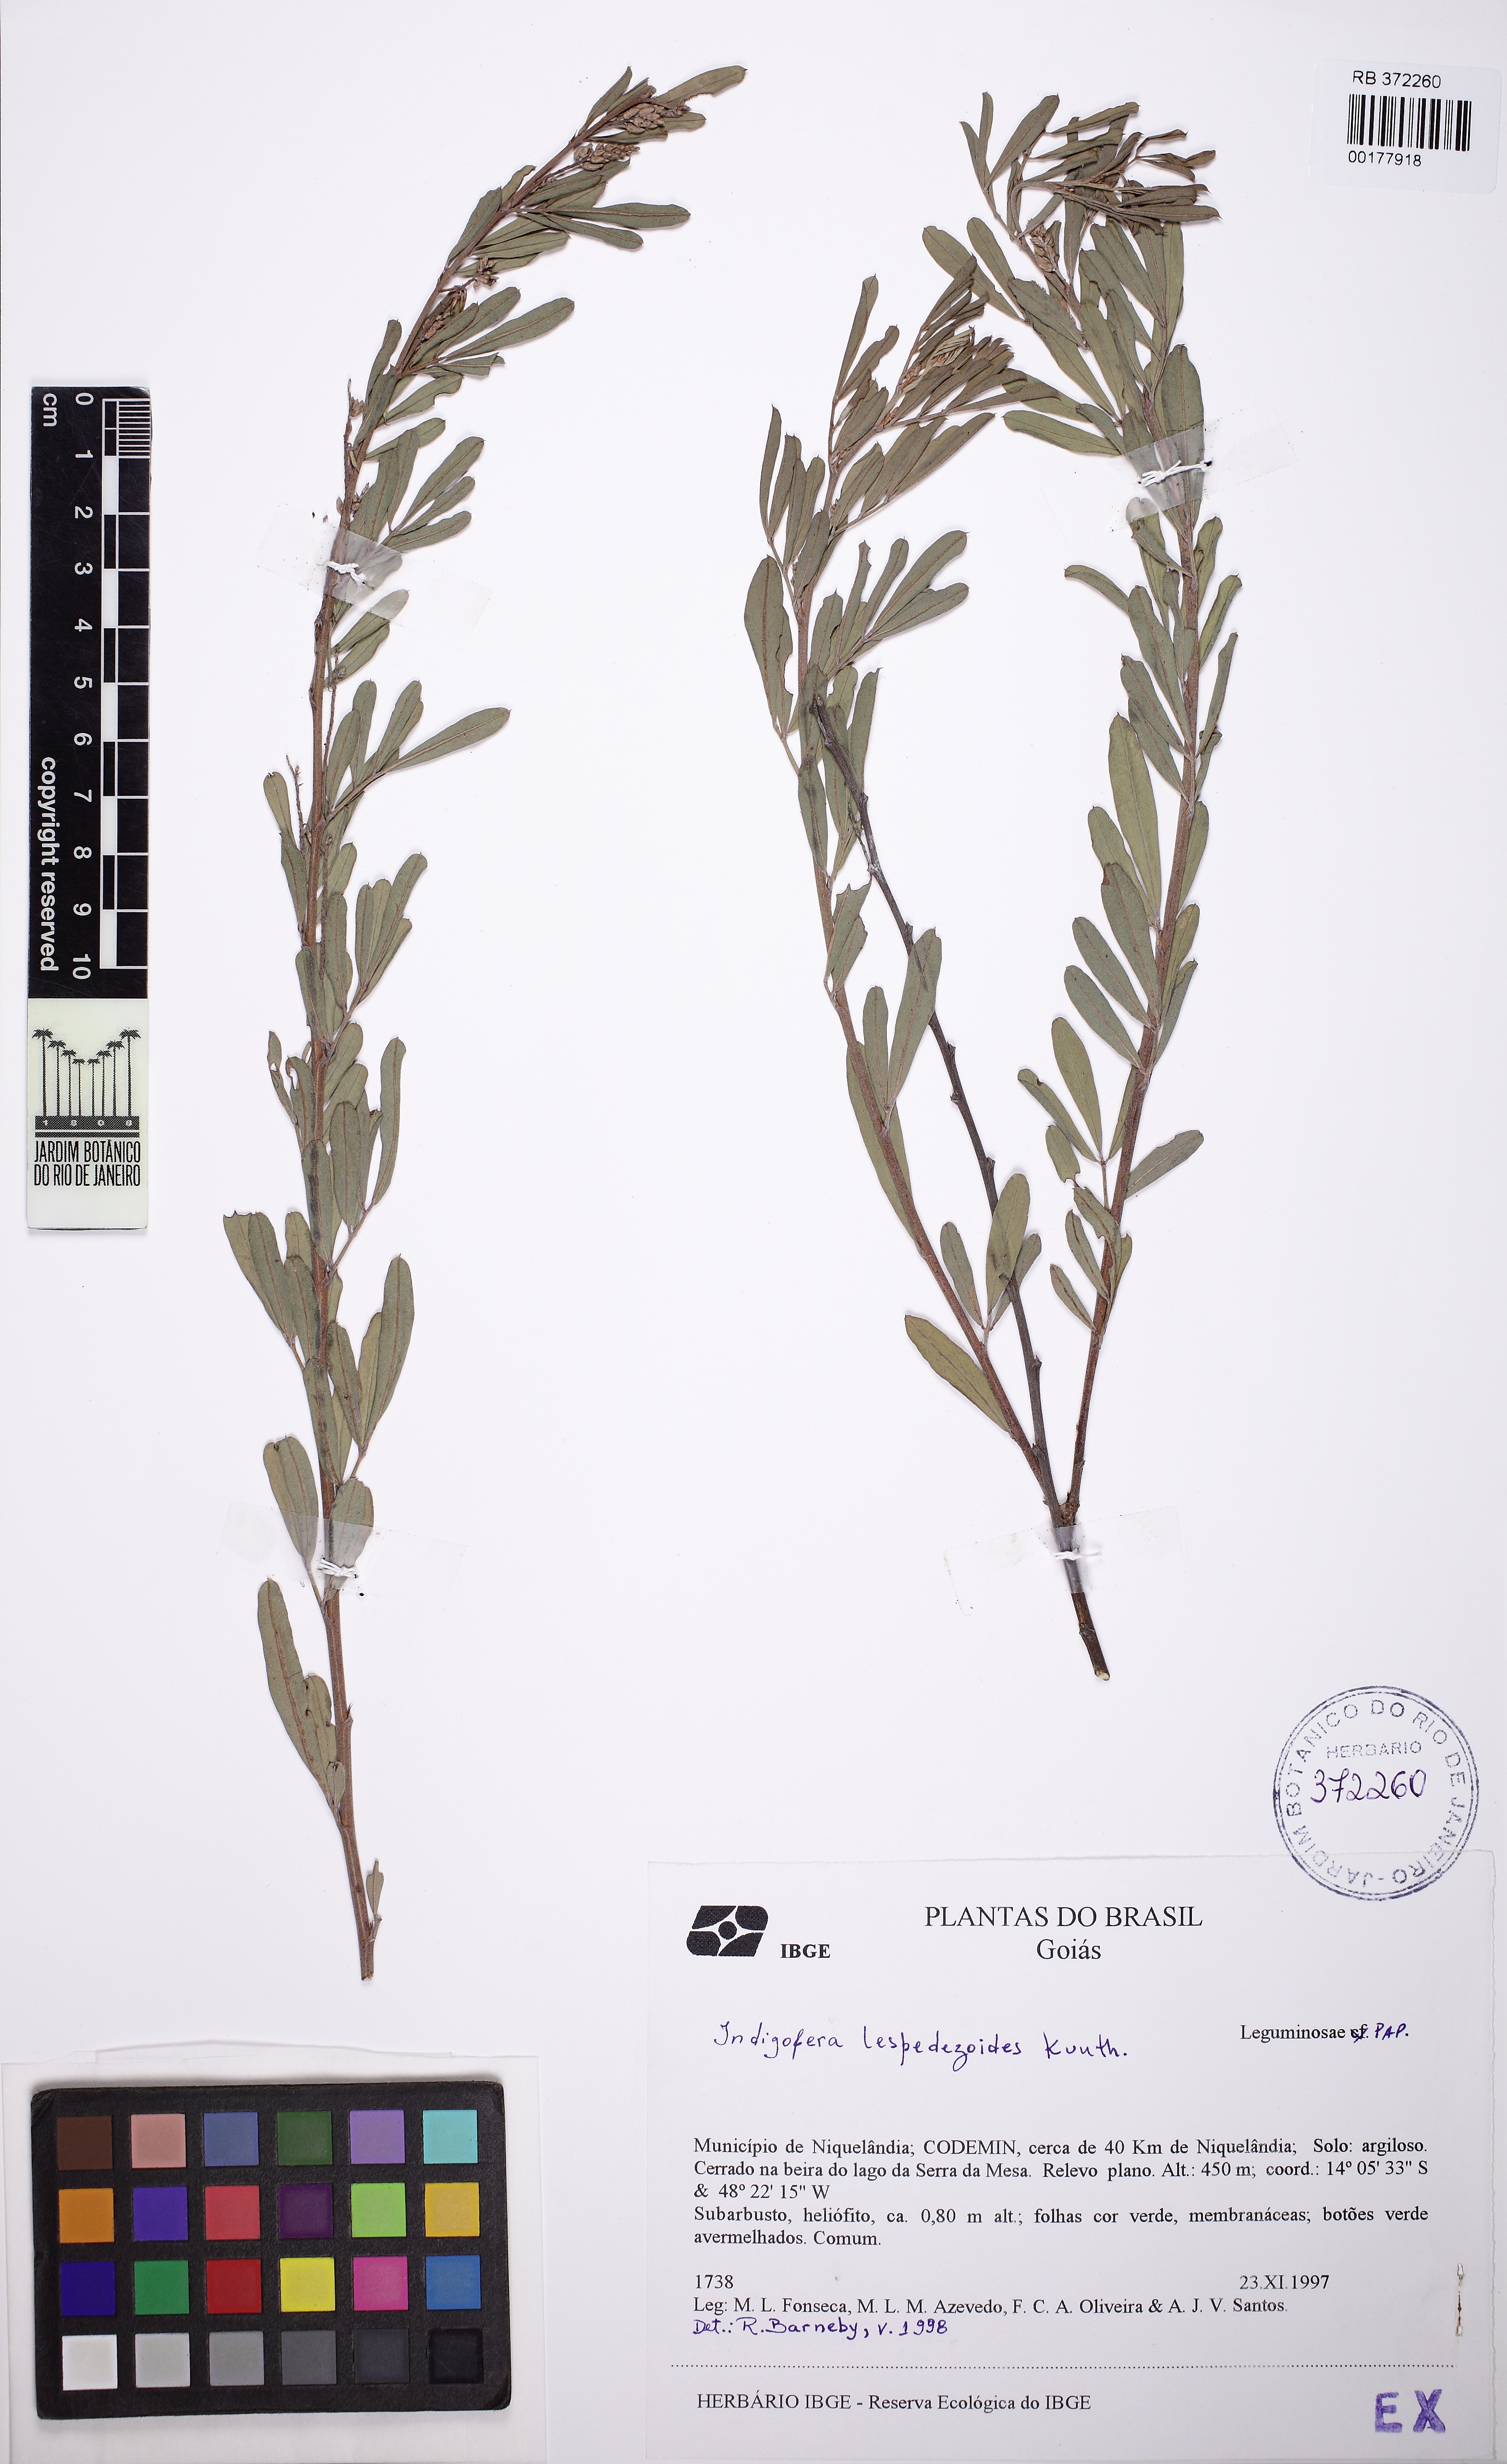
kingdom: Plantae
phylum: Tracheophyta
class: Magnoliopsida
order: Fabales
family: Fabaceae
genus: Indigofera
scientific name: Indigofera lespedezioides
